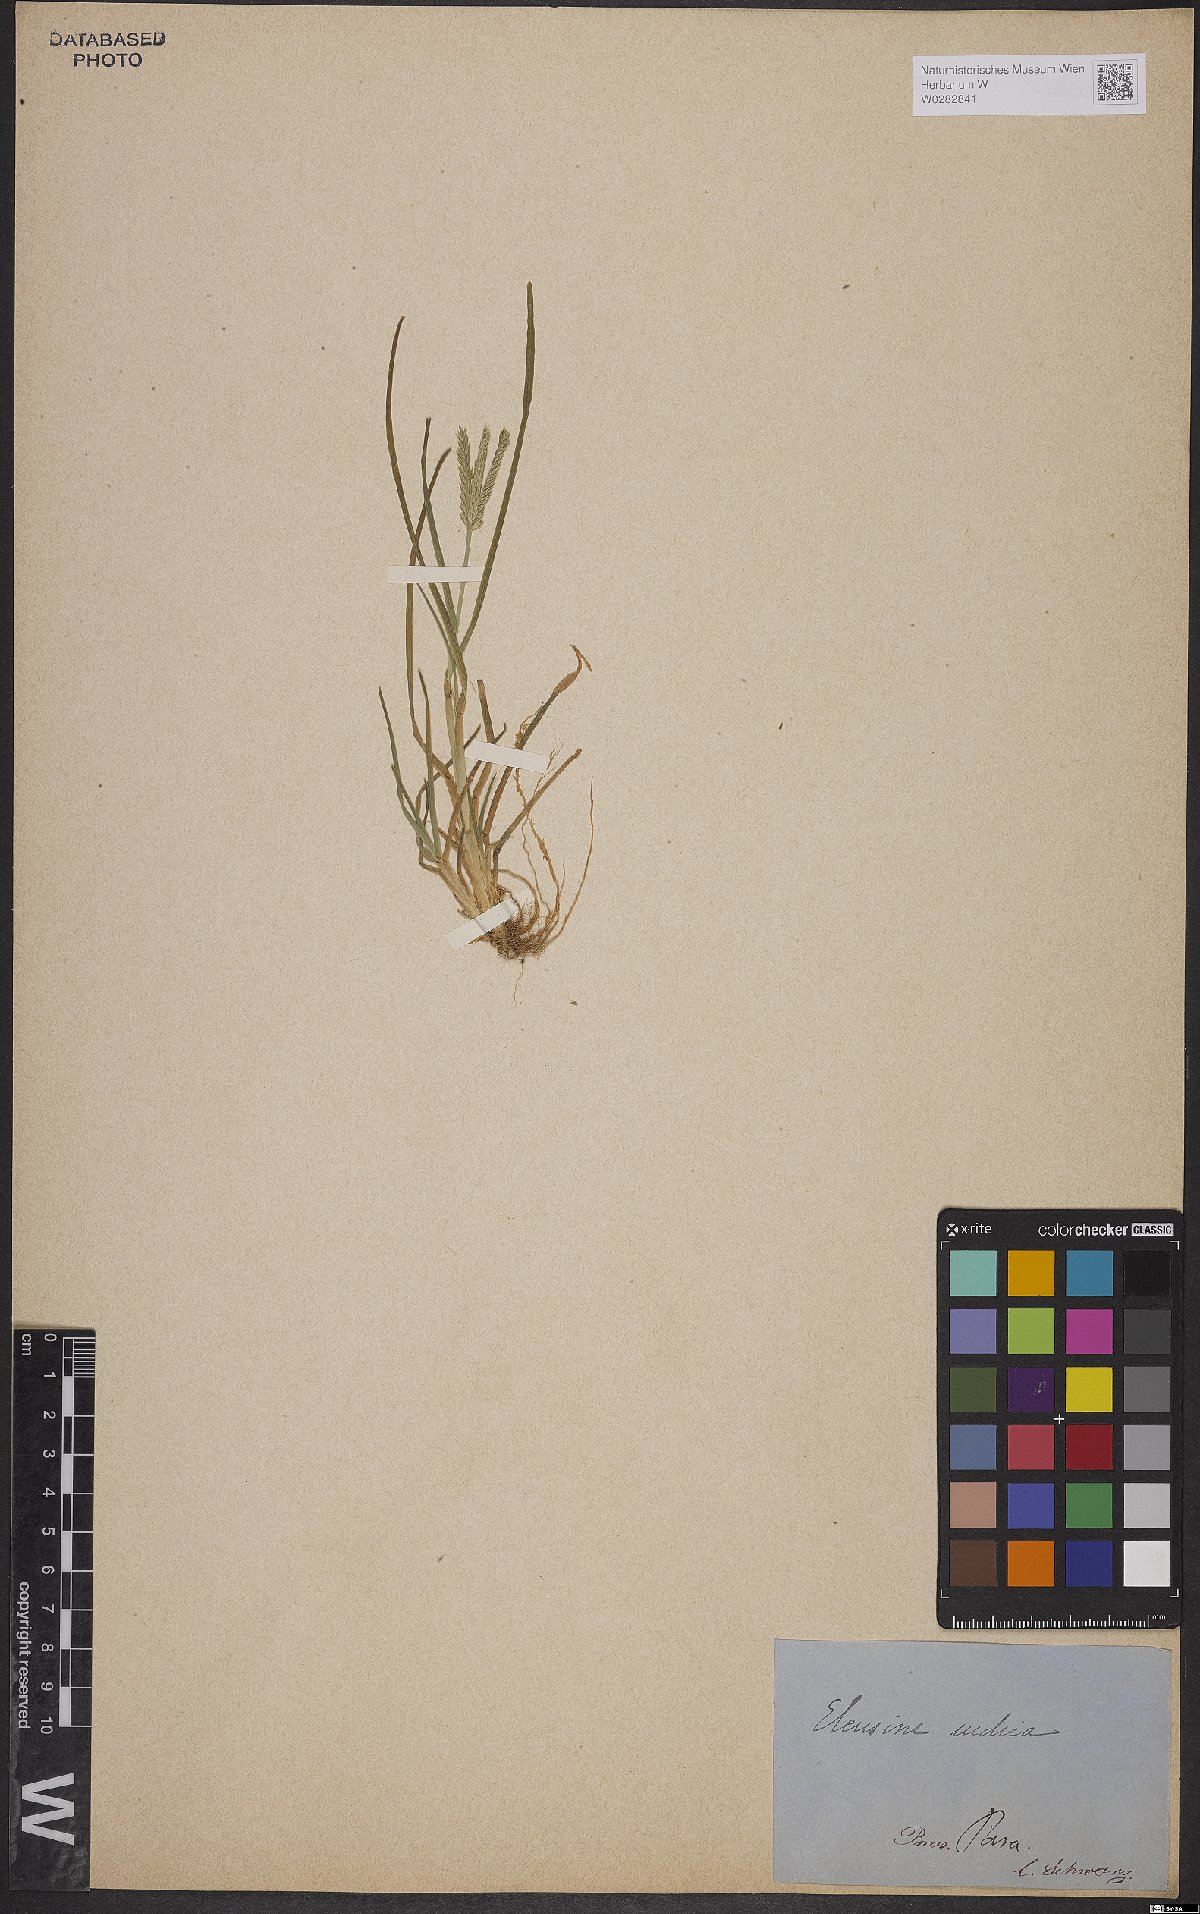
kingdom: Plantae
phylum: Tracheophyta
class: Liliopsida
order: Poales
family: Poaceae
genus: Eleusine
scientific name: Eleusine indica
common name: Yard-grass
